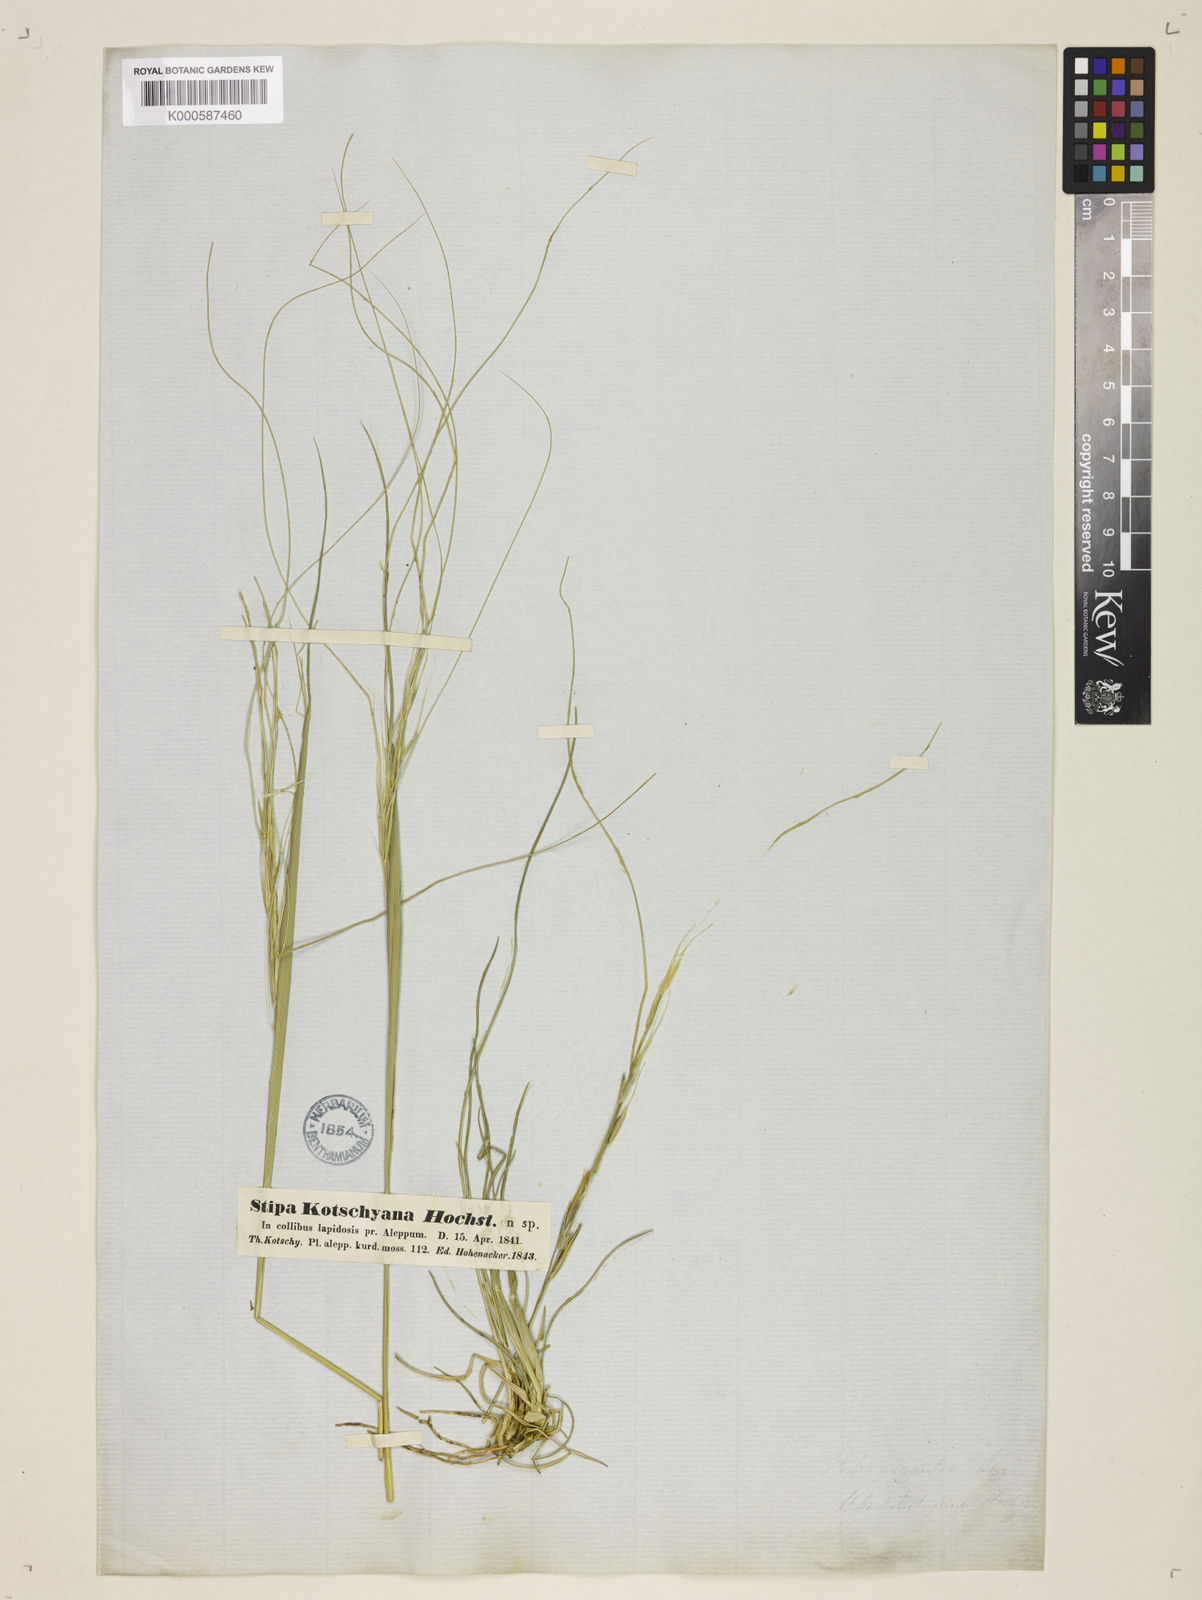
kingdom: Plantae
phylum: Tracheophyta
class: Liliopsida
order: Poales
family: Poaceae
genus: Stipa
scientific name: Stipa holosericea
